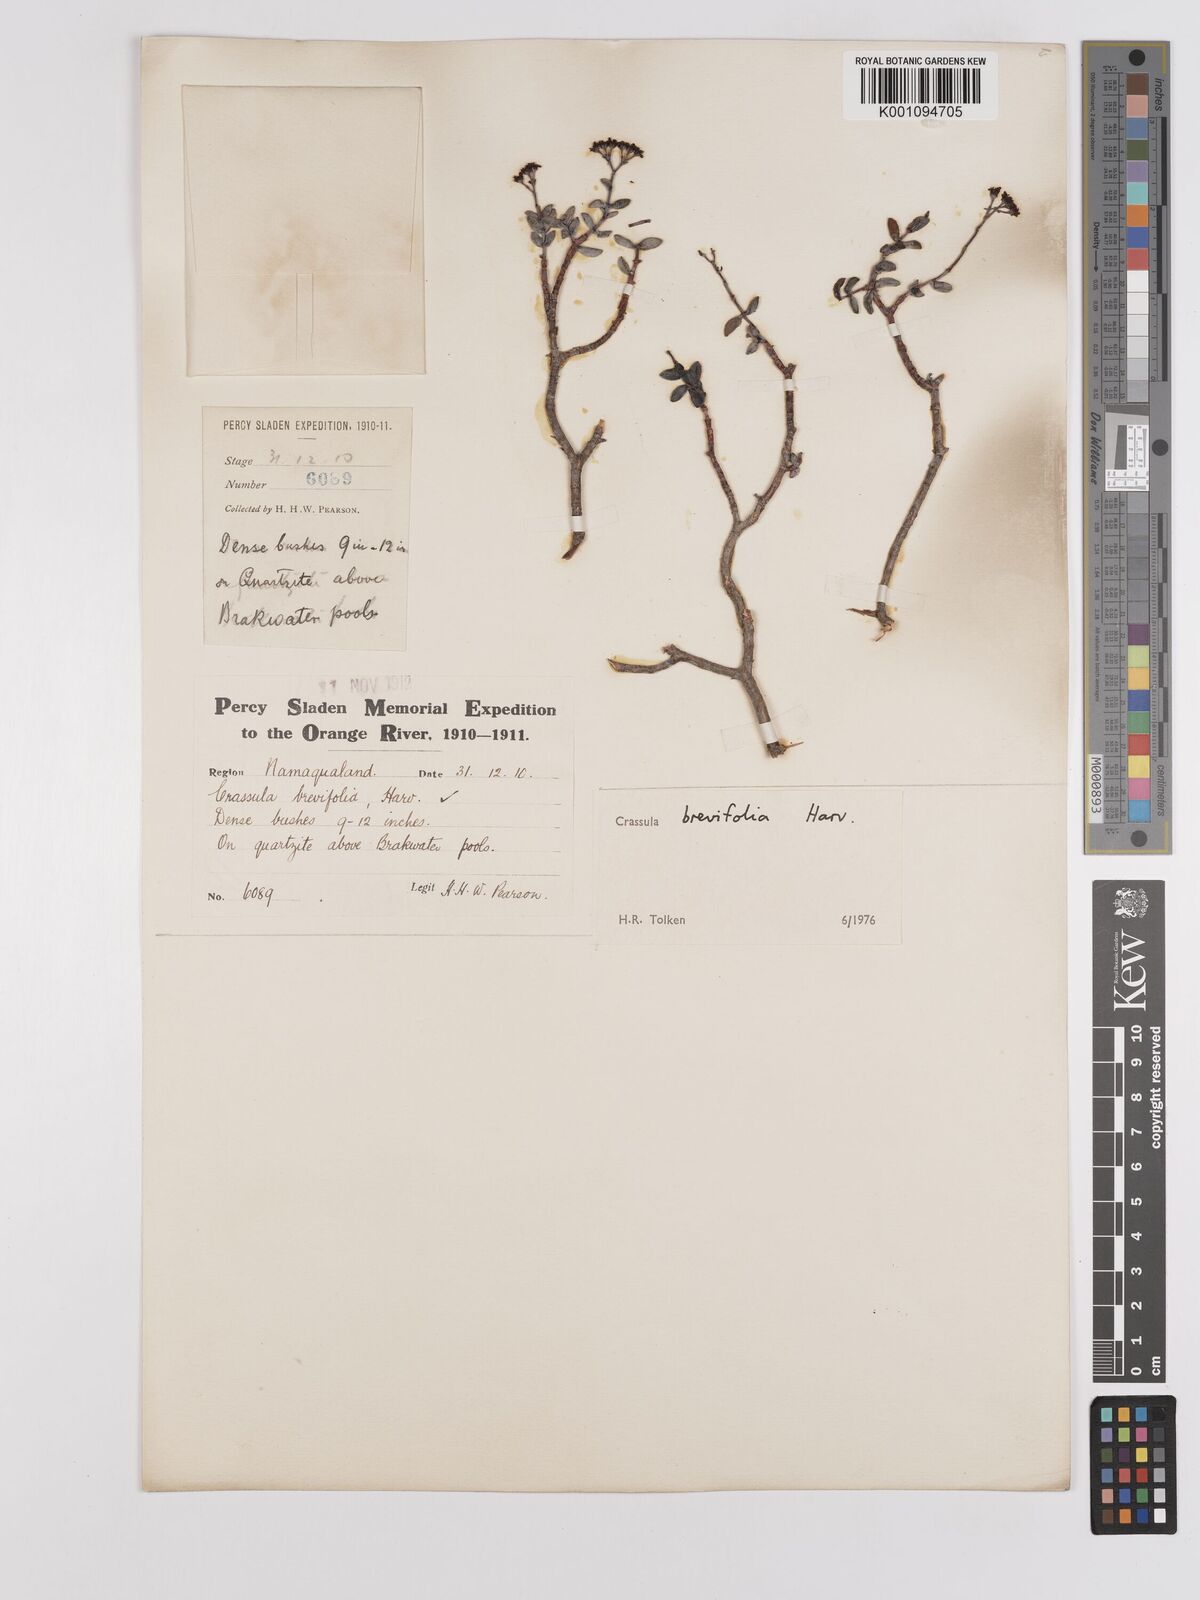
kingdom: Plantae
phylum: Tracheophyta
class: Magnoliopsida
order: Saxifragales
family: Crassulaceae
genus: Crassula
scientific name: Crassula brevifolia
